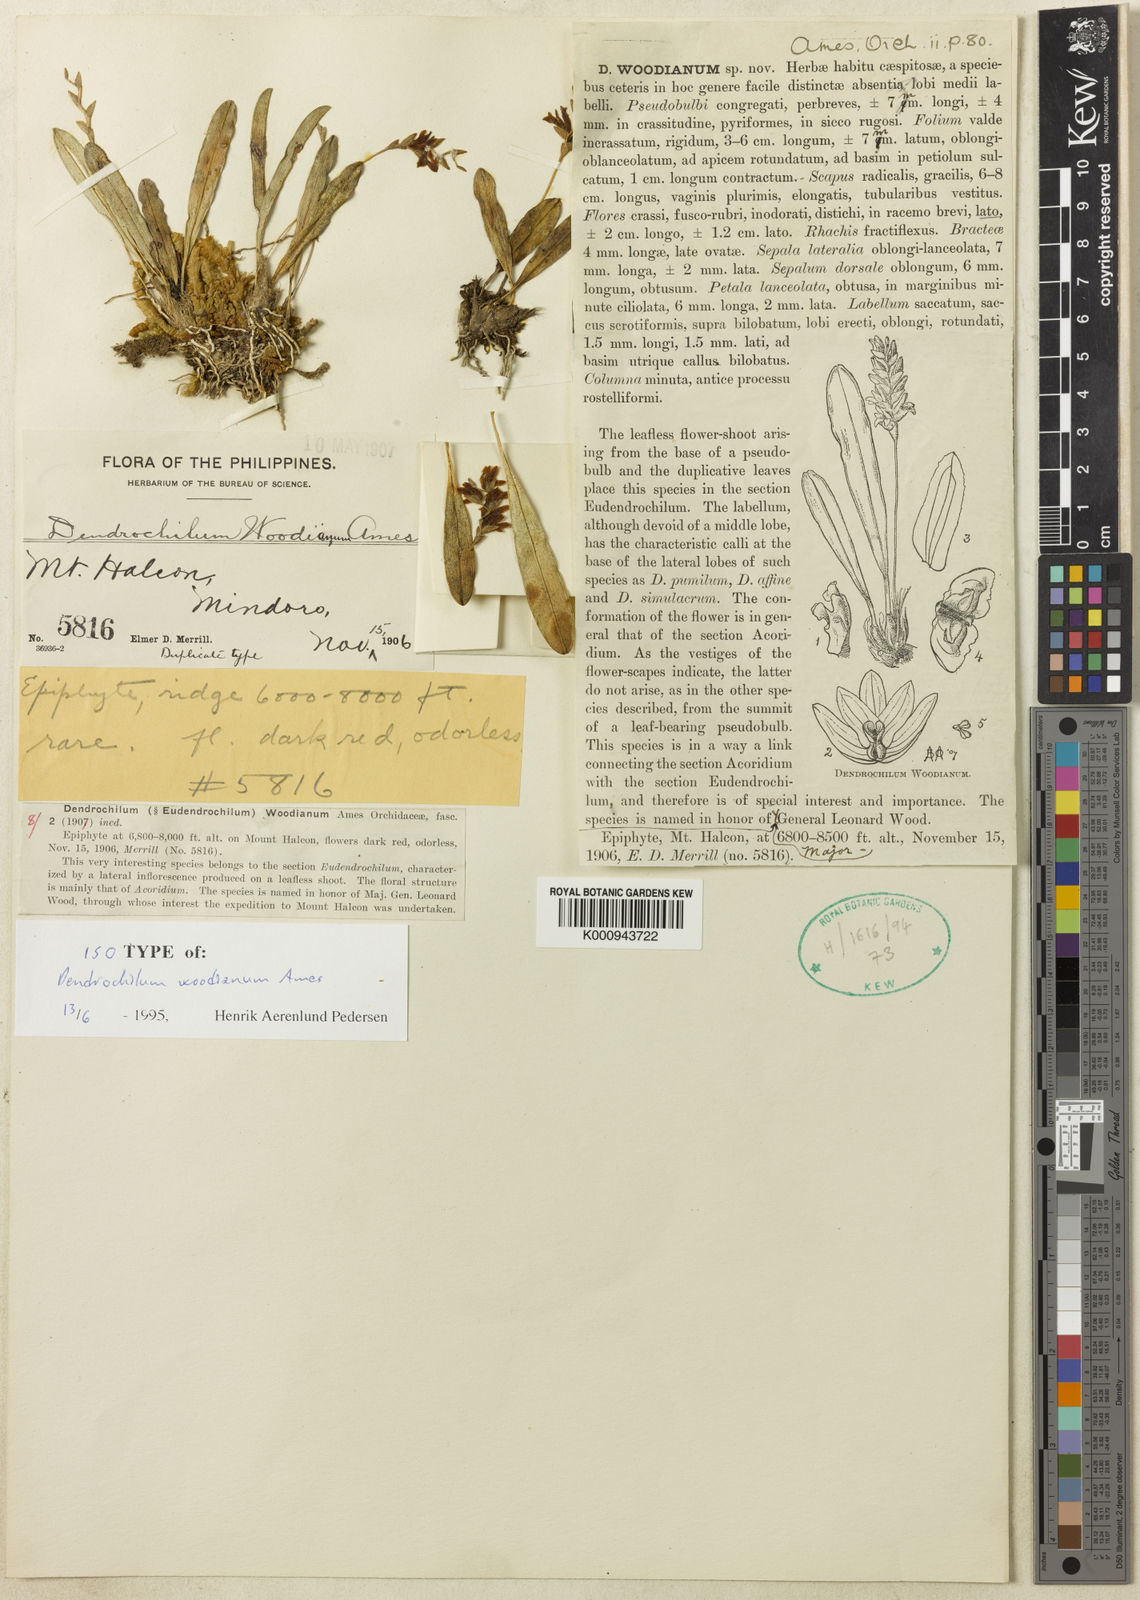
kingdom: Plantae
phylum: Tracheophyta
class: Liliopsida
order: Asparagales
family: Orchidaceae
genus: Coelogyne
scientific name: Coelogyne woodiana
